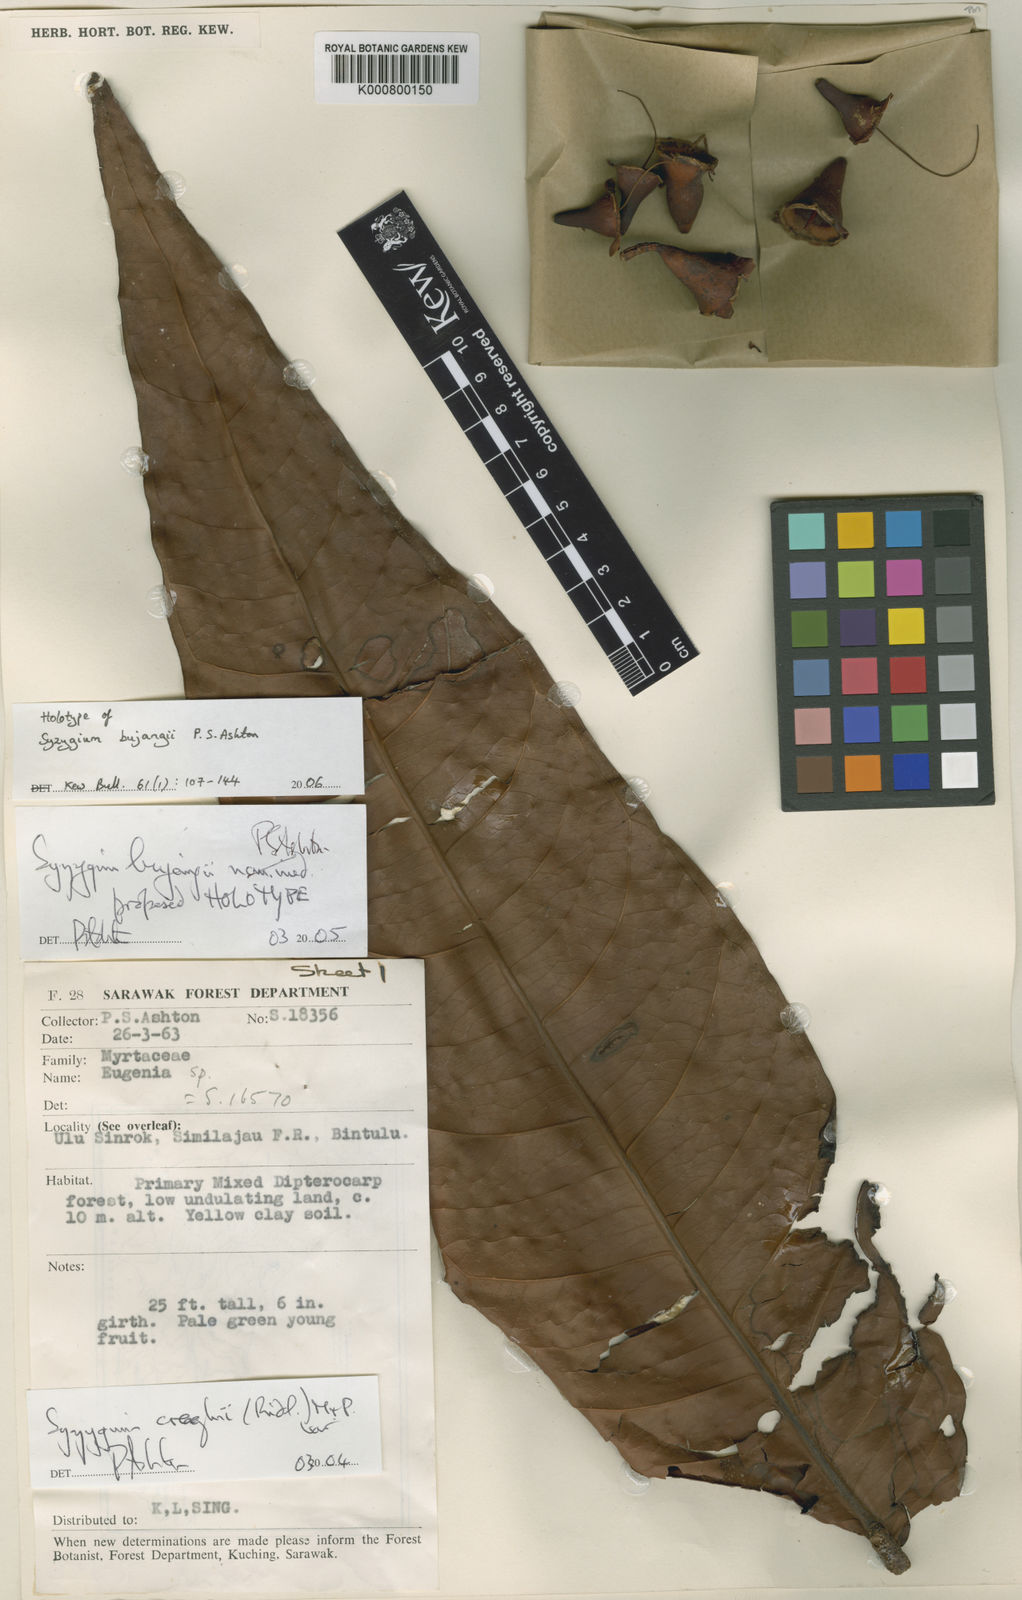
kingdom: Plantae
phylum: Tracheophyta
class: Magnoliopsida
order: Myrtales
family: Myrtaceae
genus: Syzygium
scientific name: Syzygium bujangii
